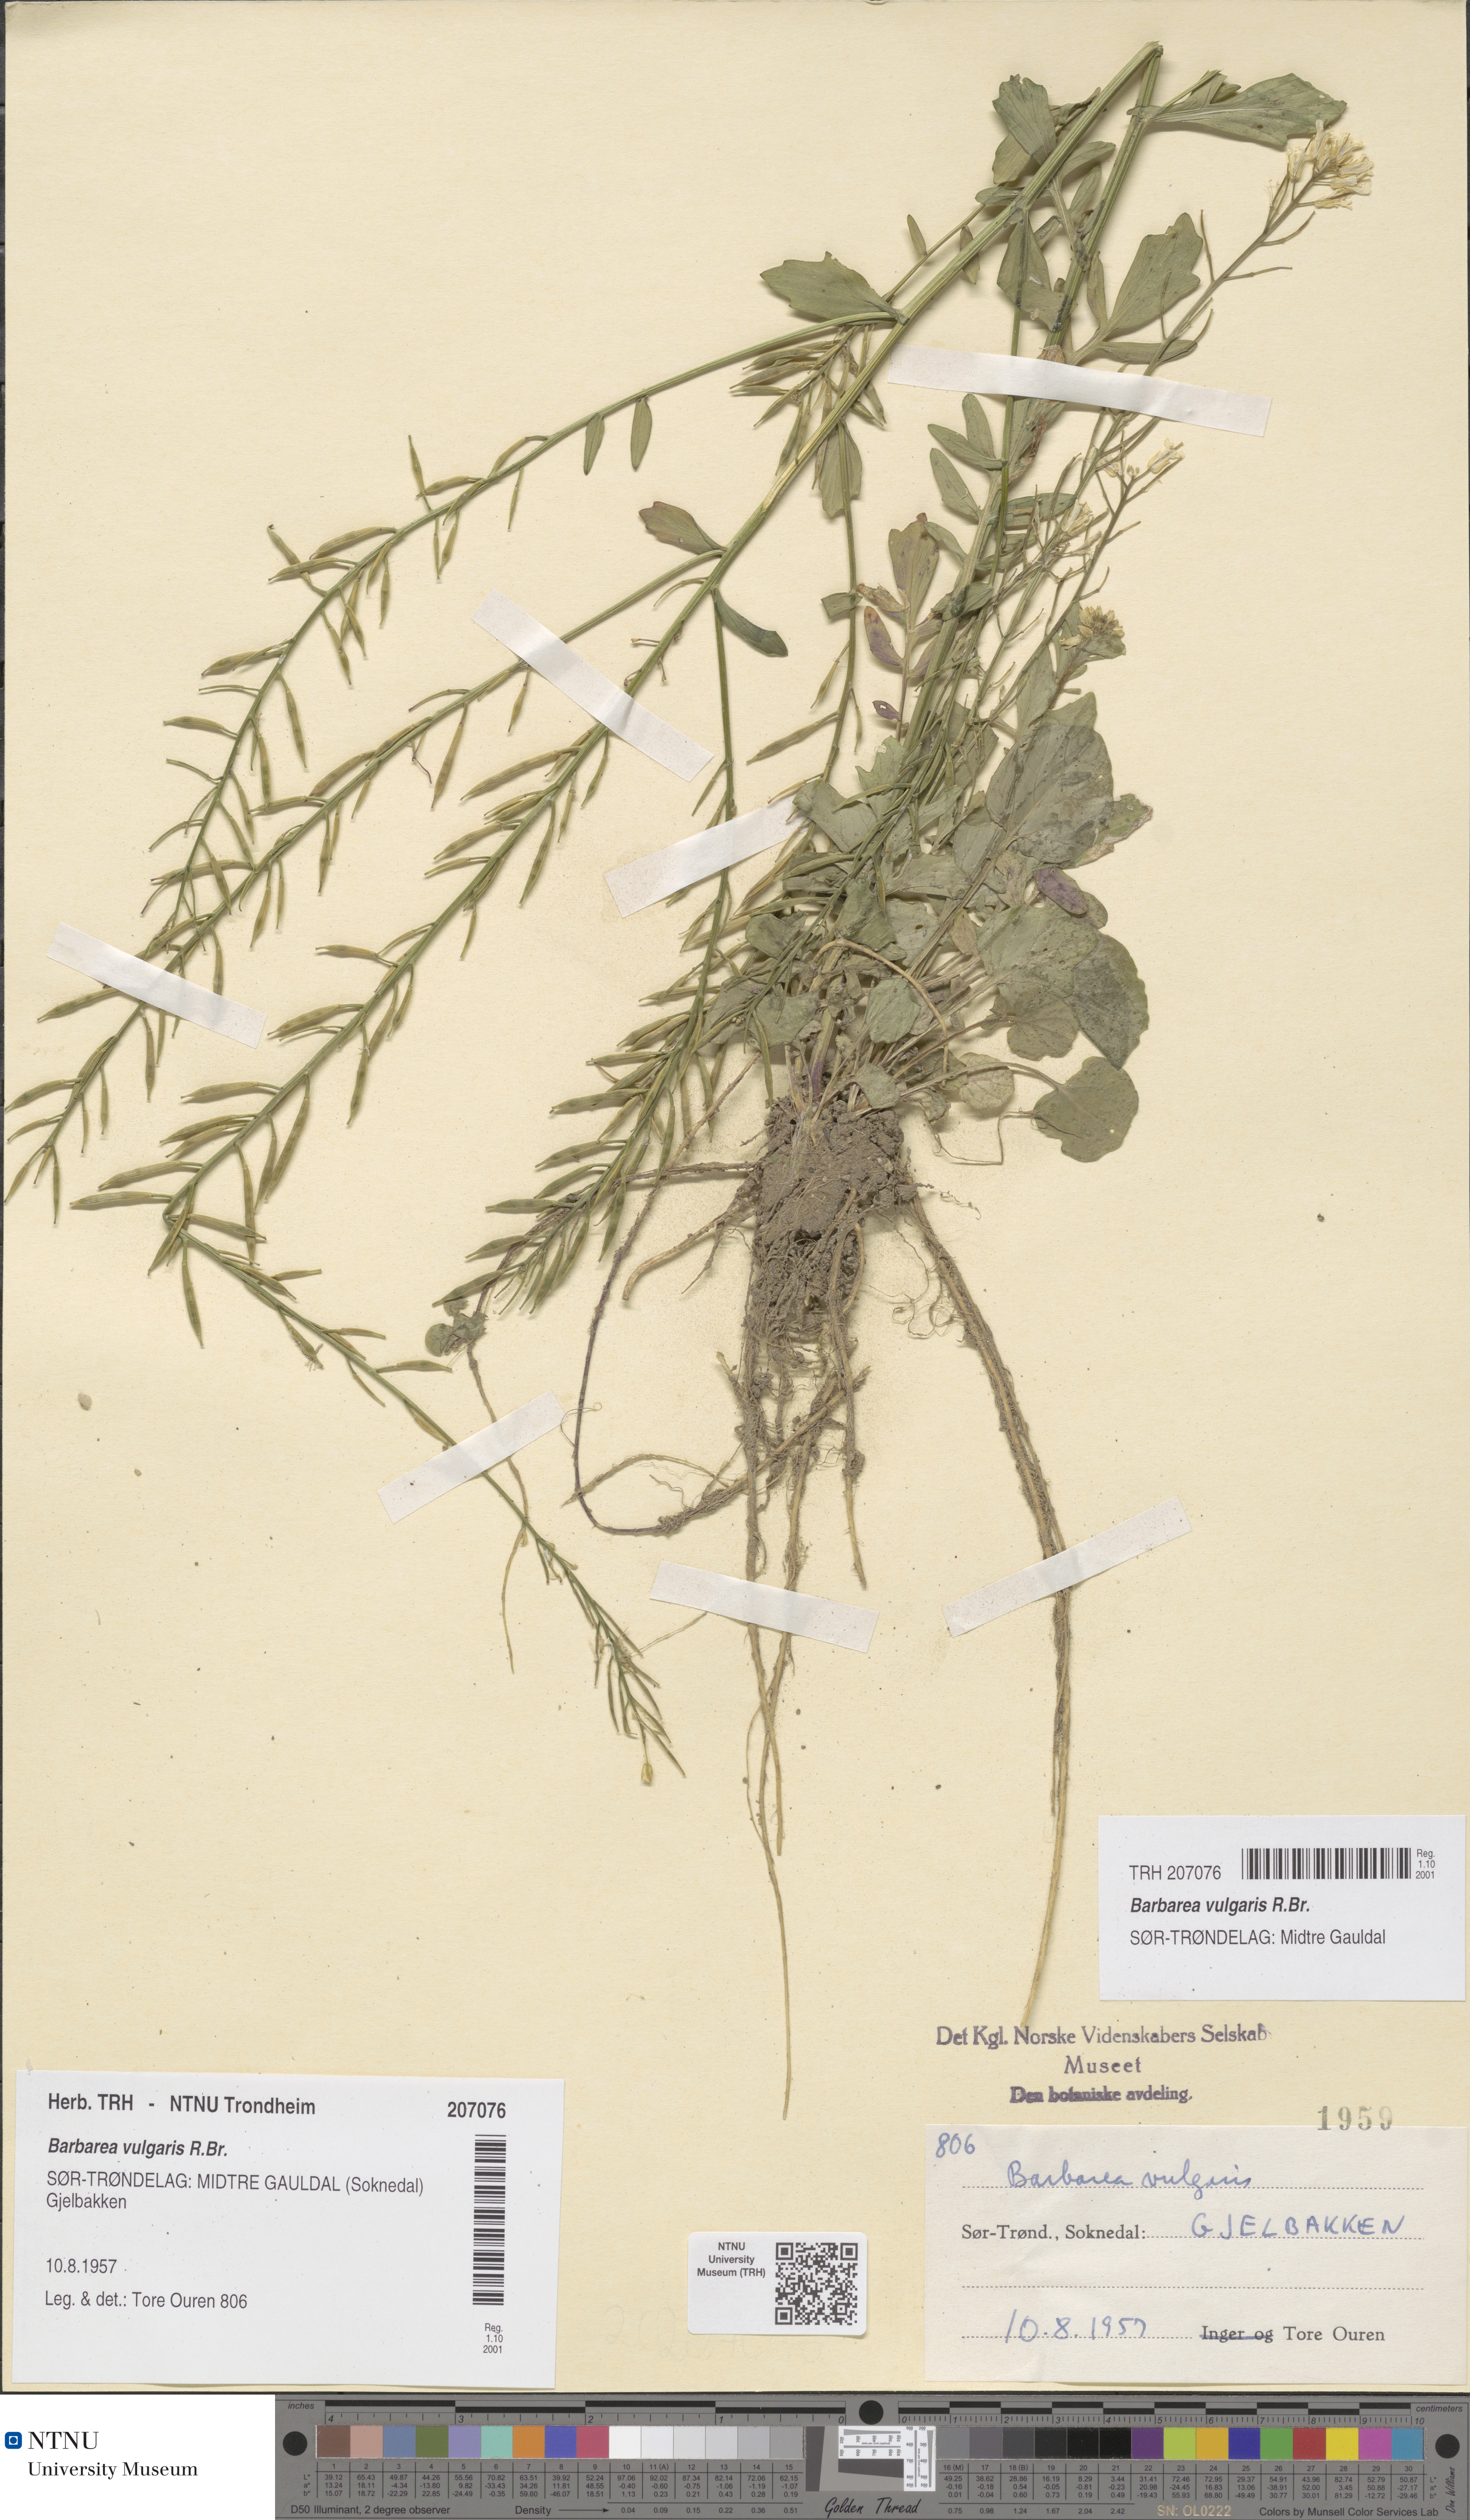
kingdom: Plantae
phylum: Tracheophyta
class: Magnoliopsida
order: Brassicales
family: Brassicaceae
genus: Barbarea
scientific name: Barbarea vulgaris
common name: Cressy-greens
